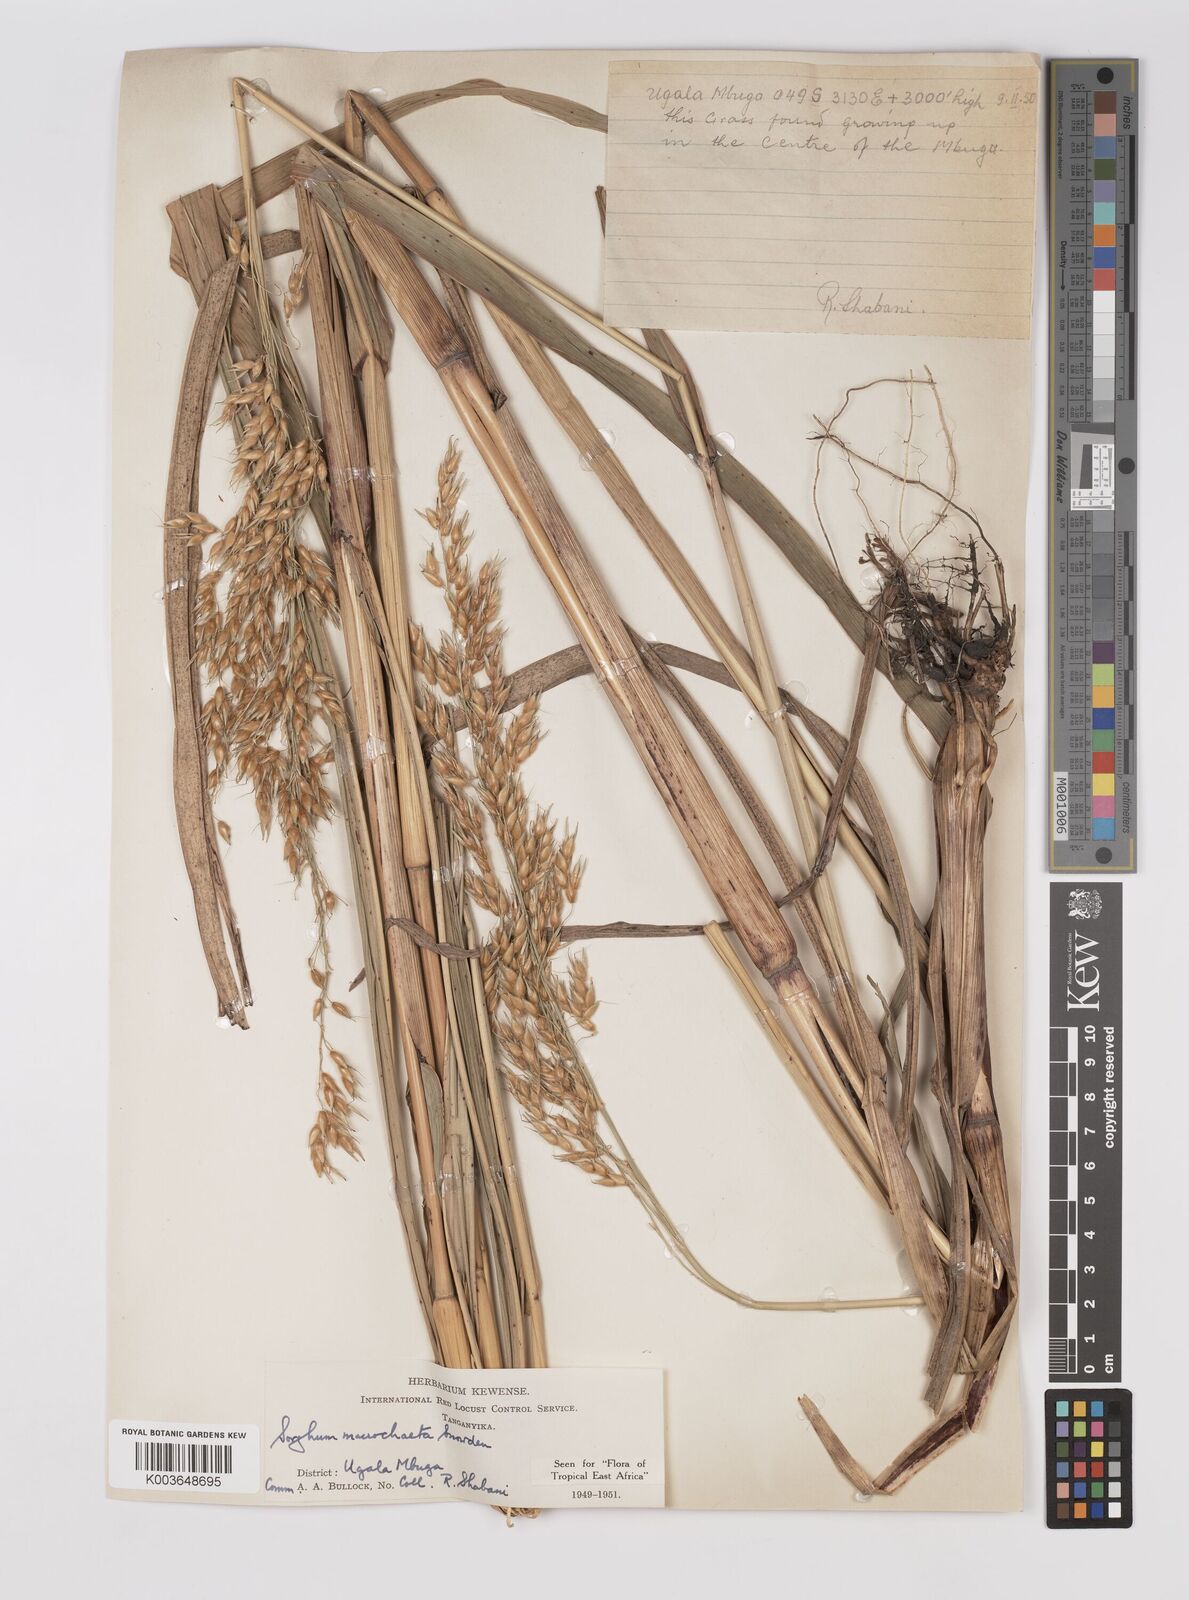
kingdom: Plantae
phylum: Tracheophyta
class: Liliopsida
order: Poales
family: Poaceae
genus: Sorghum
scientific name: Sorghum arundinaceum
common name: Sorghum
